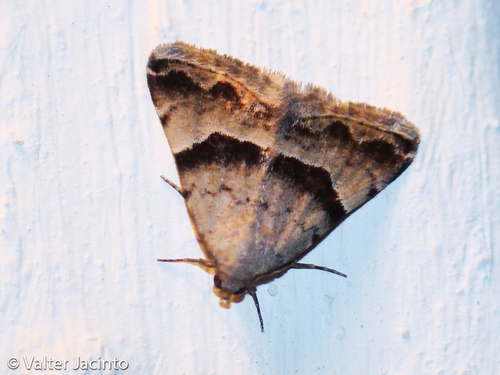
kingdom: Animalia
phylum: Arthropoda
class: Insecta
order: Lepidoptera
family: Noctuidae
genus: Odice
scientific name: Odice pergrata
